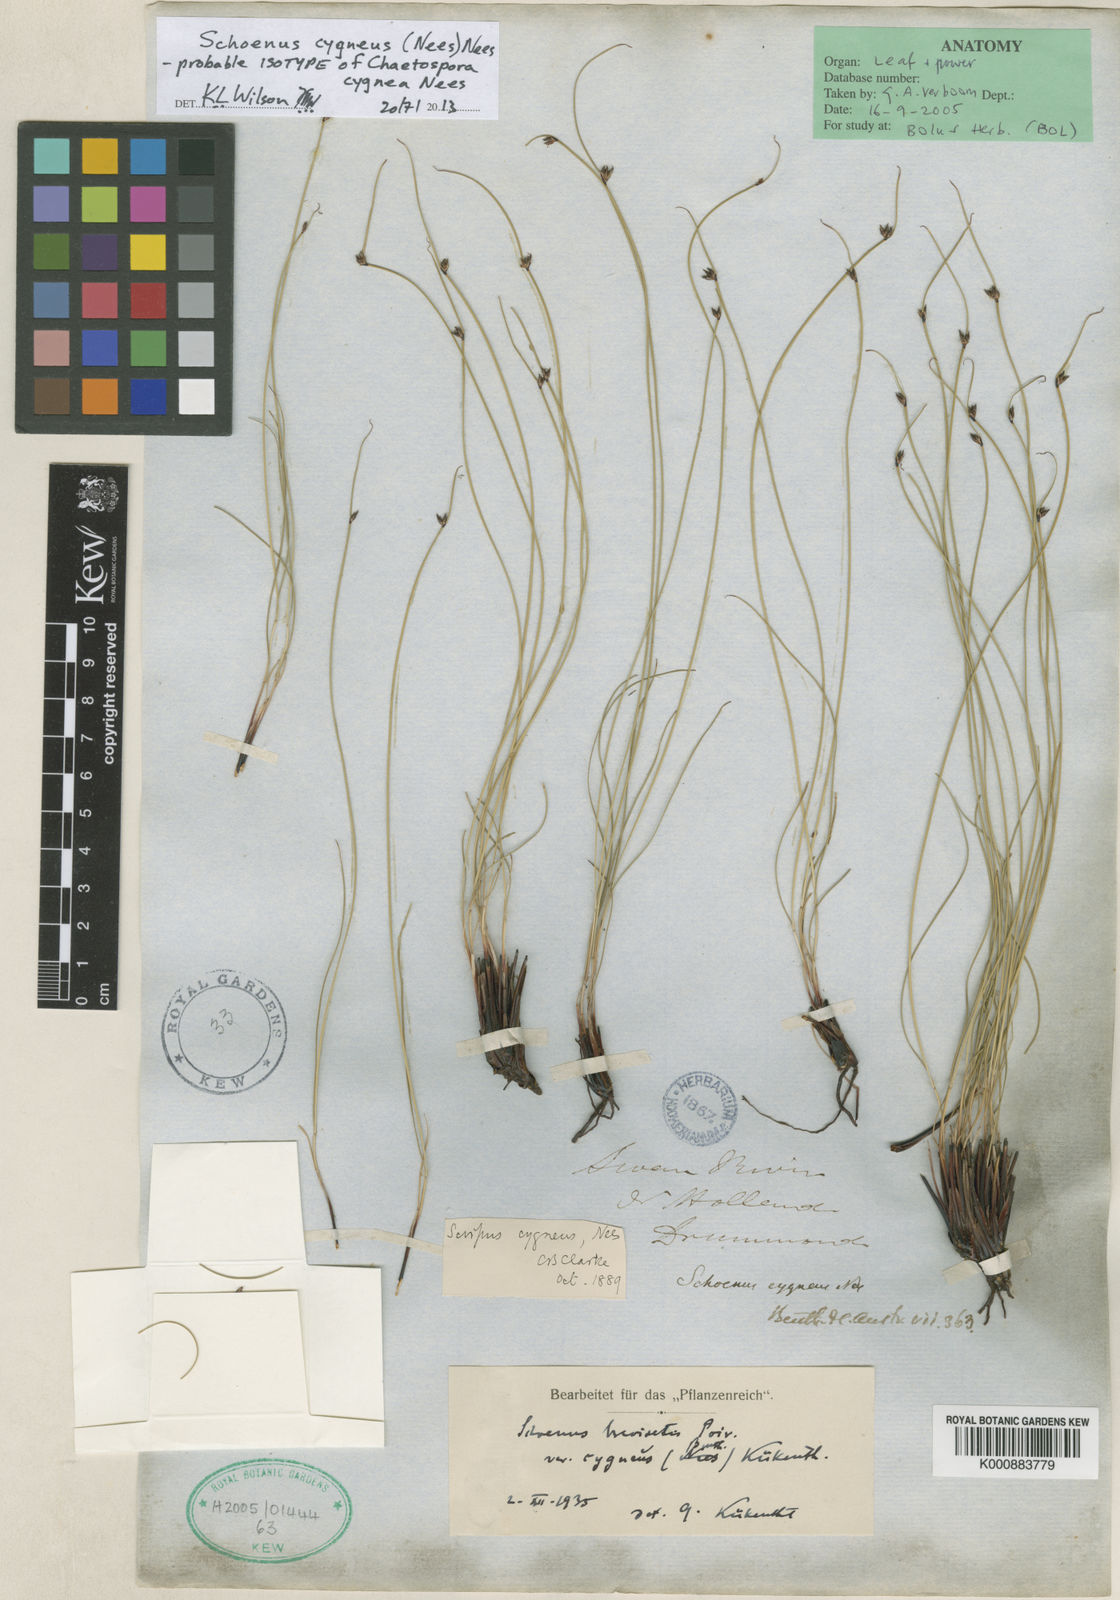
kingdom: Plantae
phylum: Tracheophyta
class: Liliopsida
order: Poales
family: Cyperaceae
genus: Schoenus
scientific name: Schoenus cygneus
